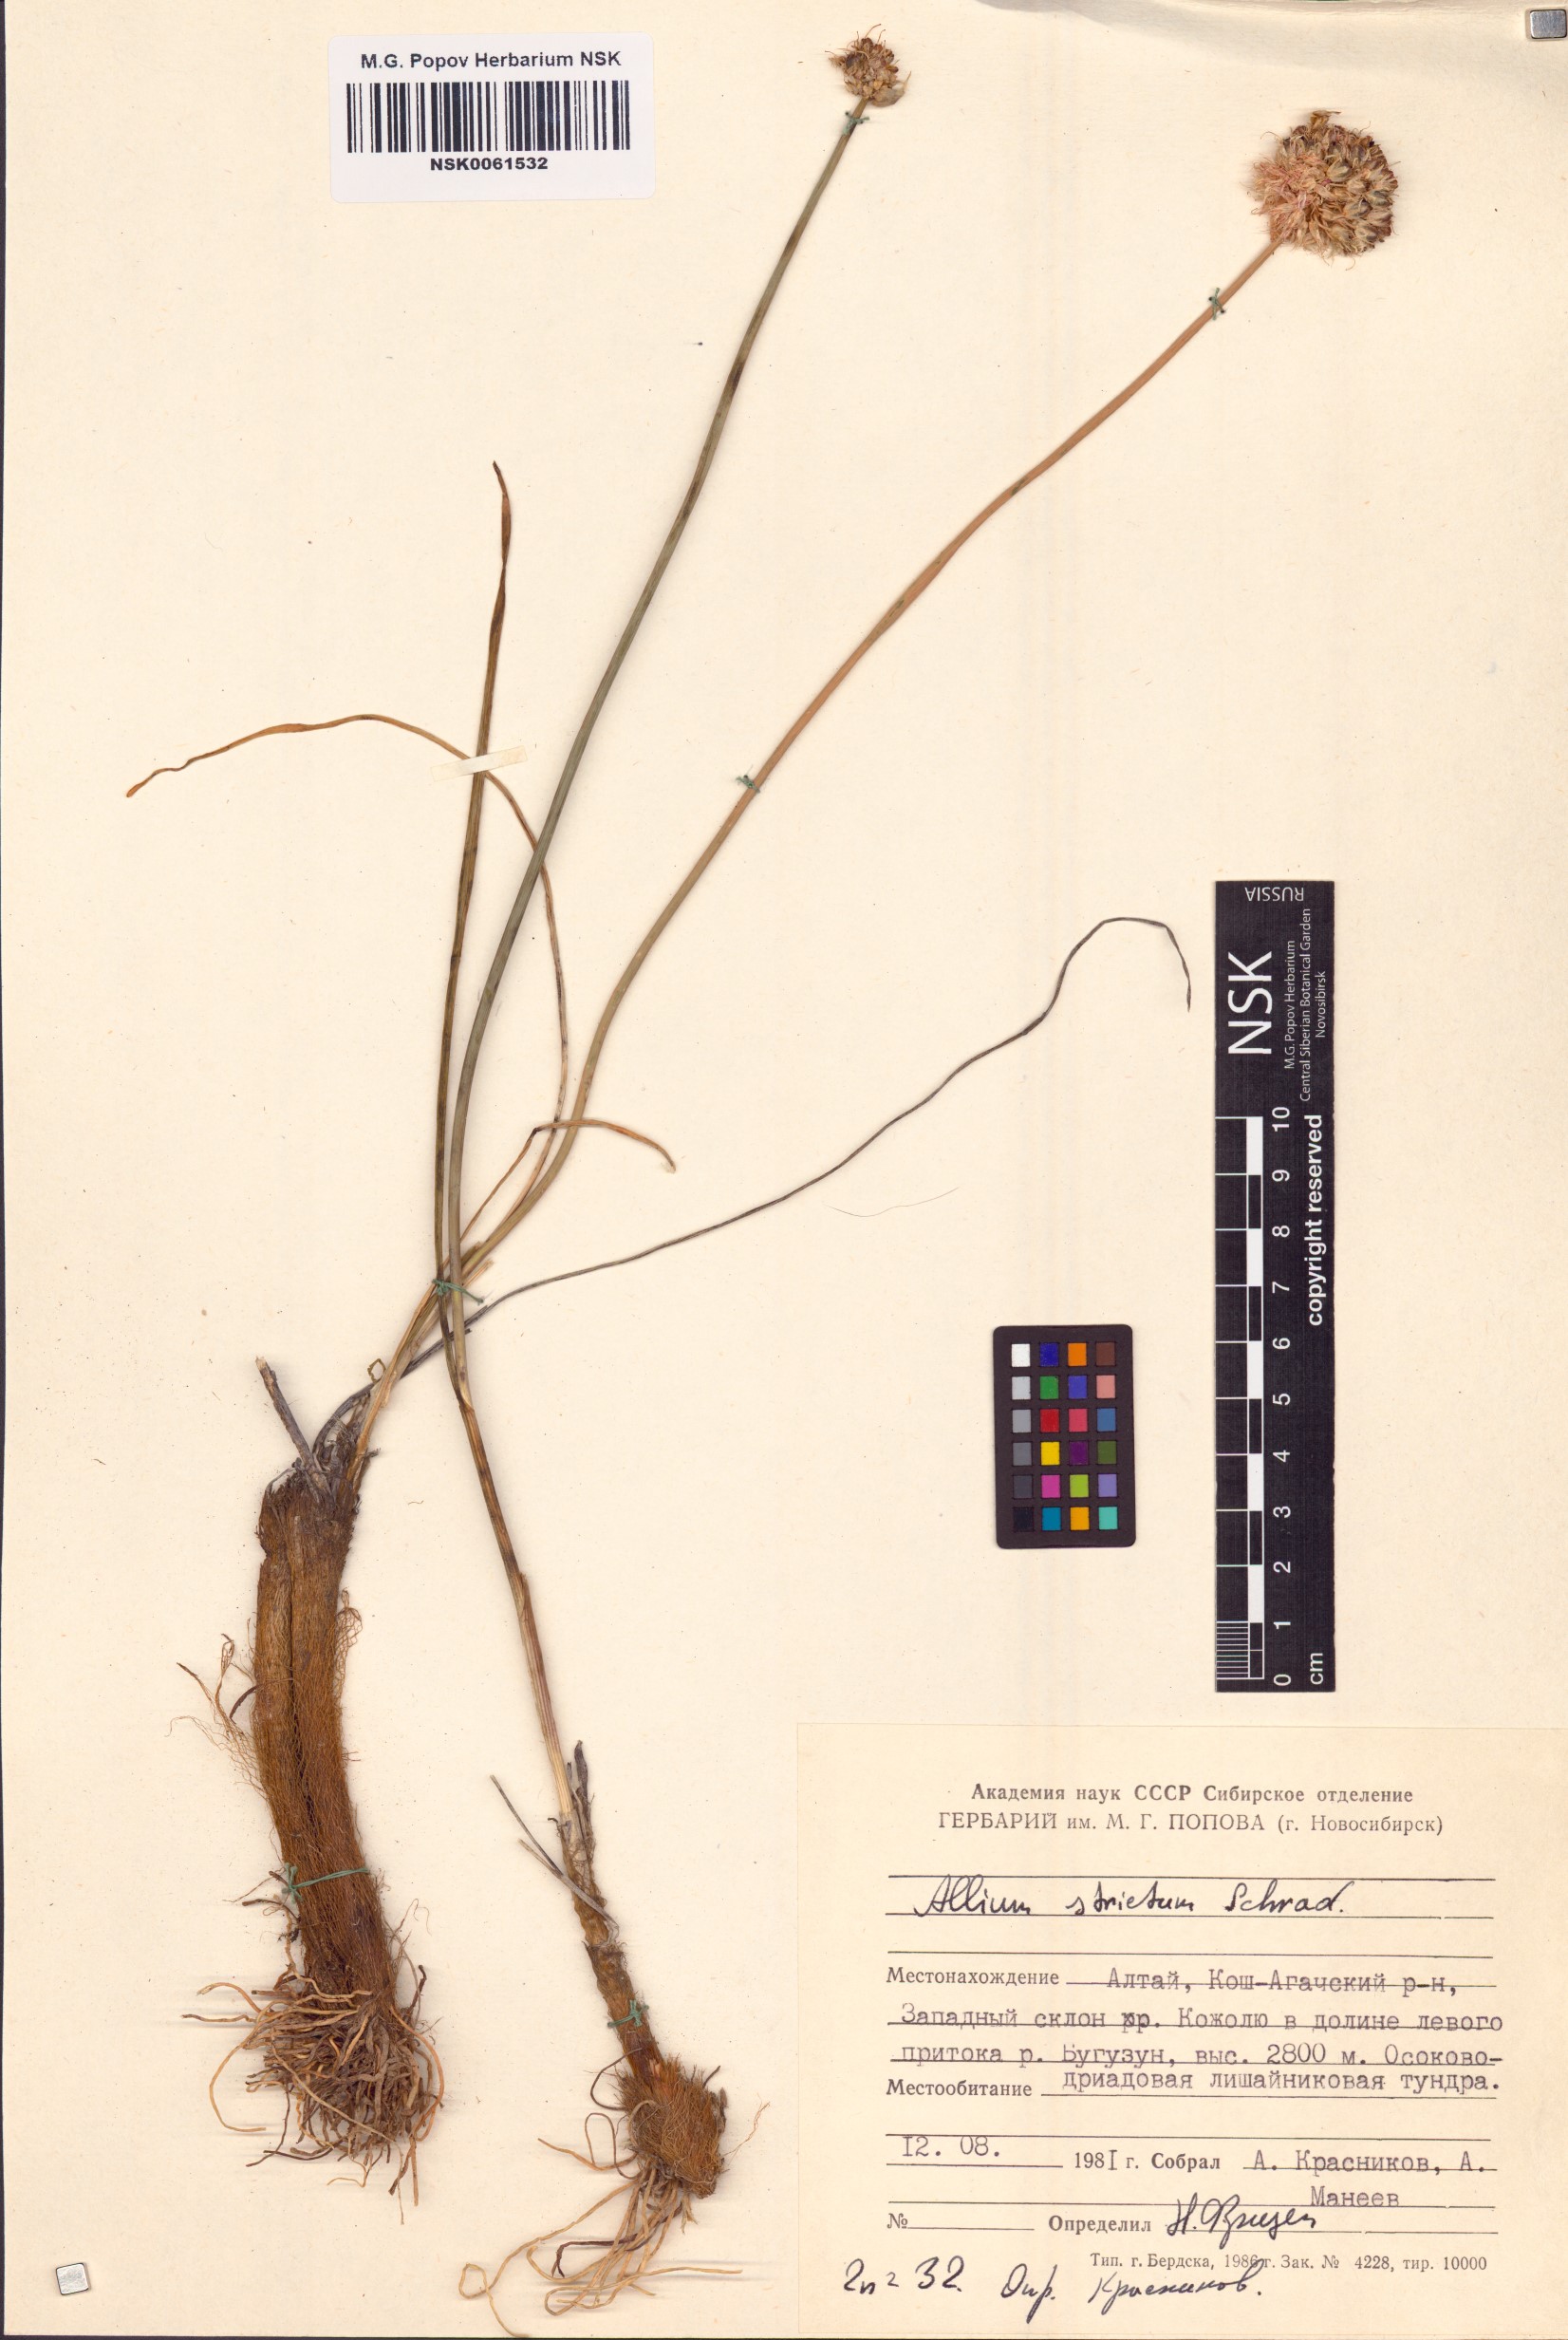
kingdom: Plantae
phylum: Tracheophyta
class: Liliopsida
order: Asparagales
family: Amaryllidaceae
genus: Allium
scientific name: Allium strictum
